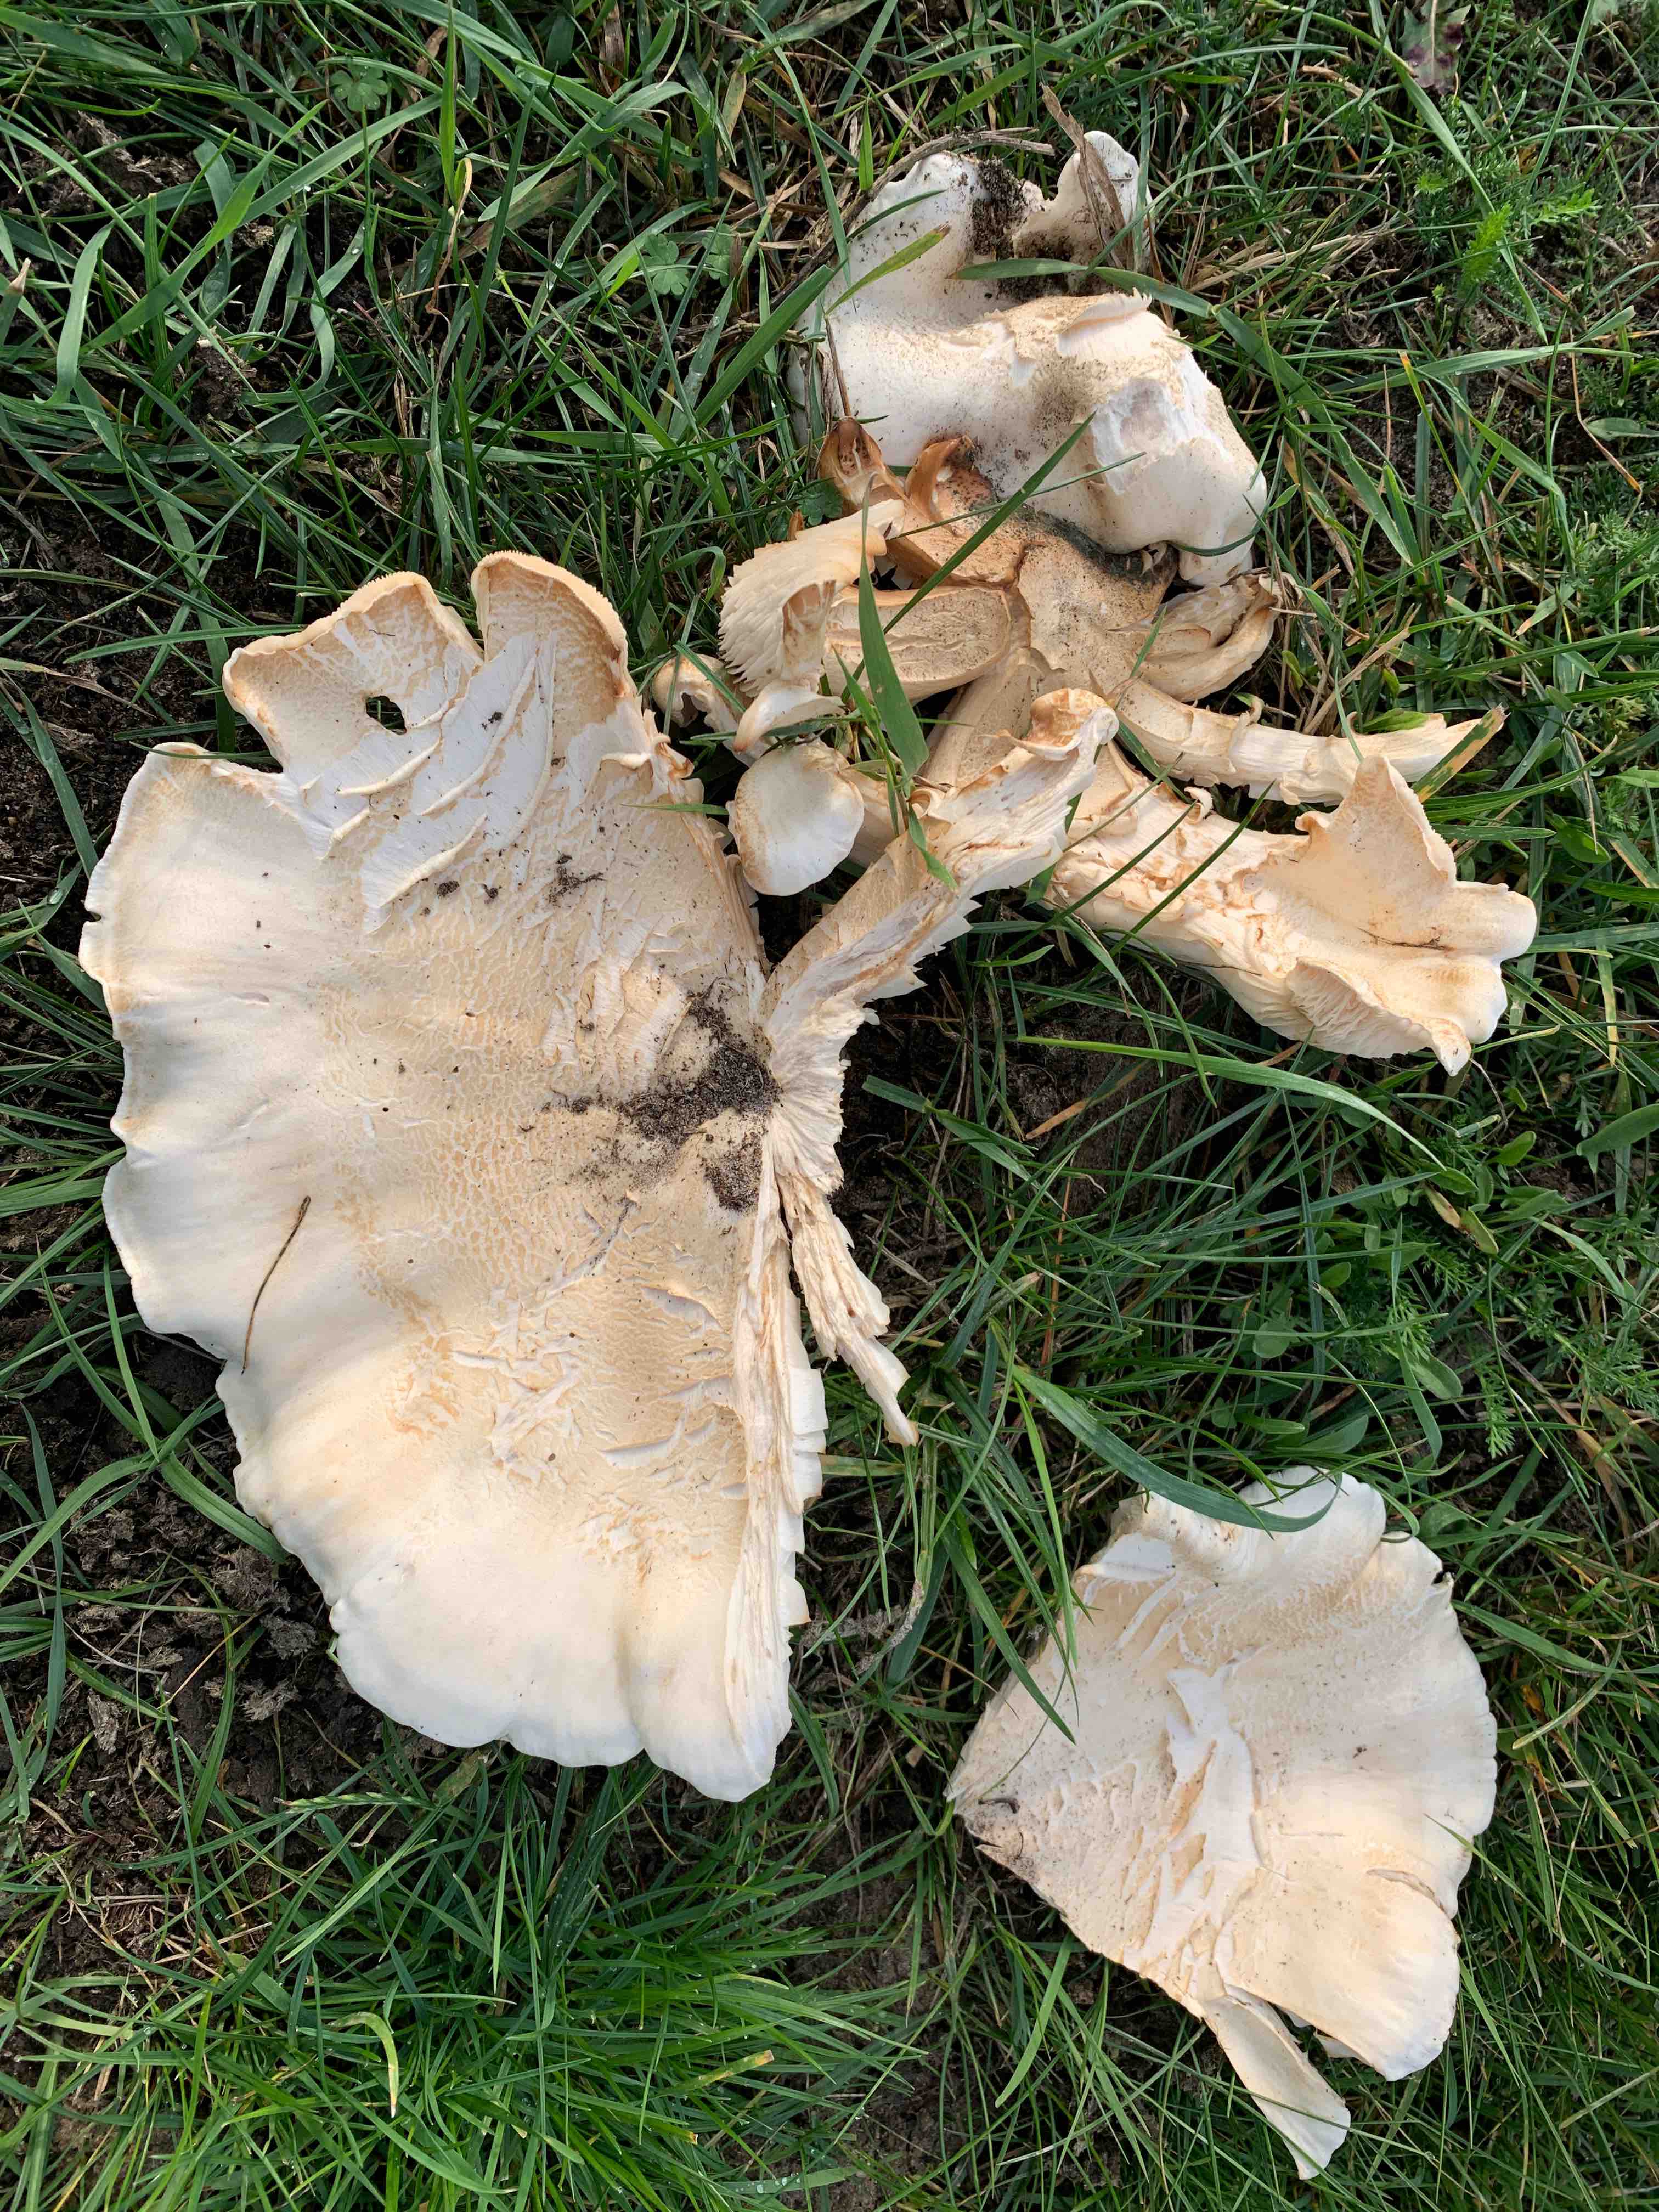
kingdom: Fungi
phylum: Basidiomycota
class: Agaricomycetes
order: Agaricales
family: Tricholomataceae
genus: Aspropaxillus
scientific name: Aspropaxillus giganteus
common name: kæmpe-tragtridderhat
